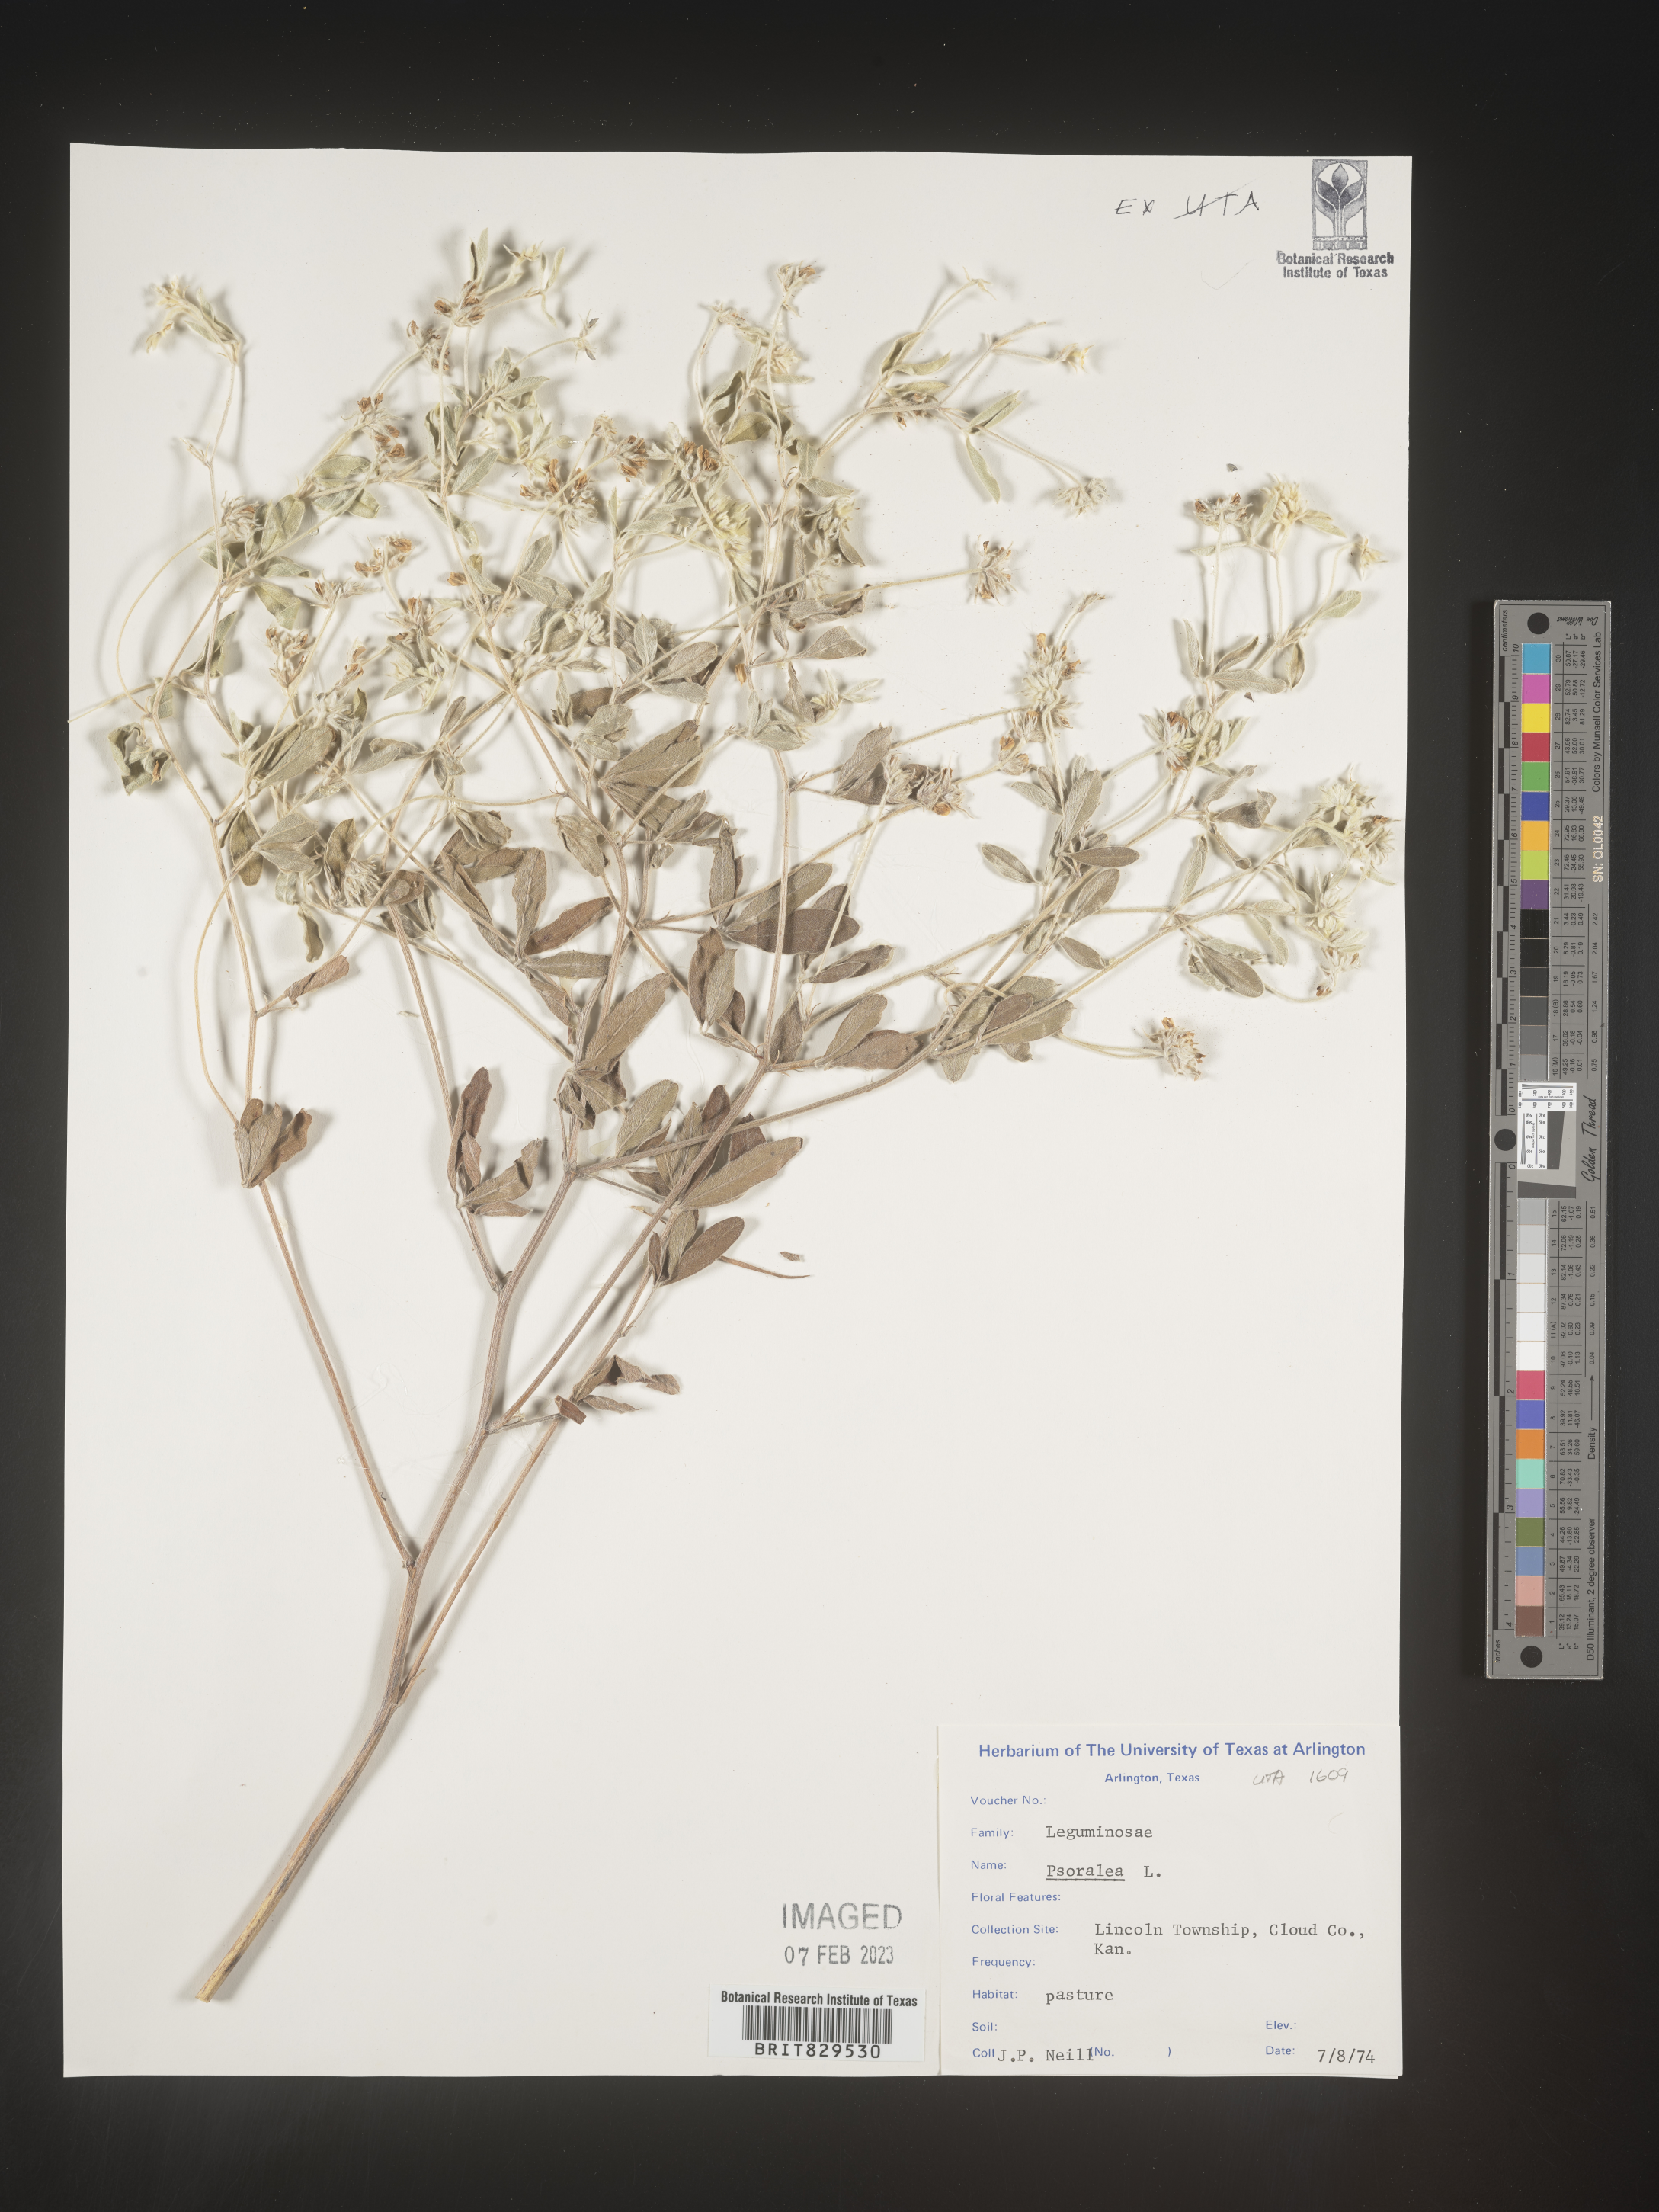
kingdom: Plantae
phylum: Tracheophyta
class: Magnoliopsida
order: Fabales
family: Fabaceae
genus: Psoralea
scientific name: Psoralea
